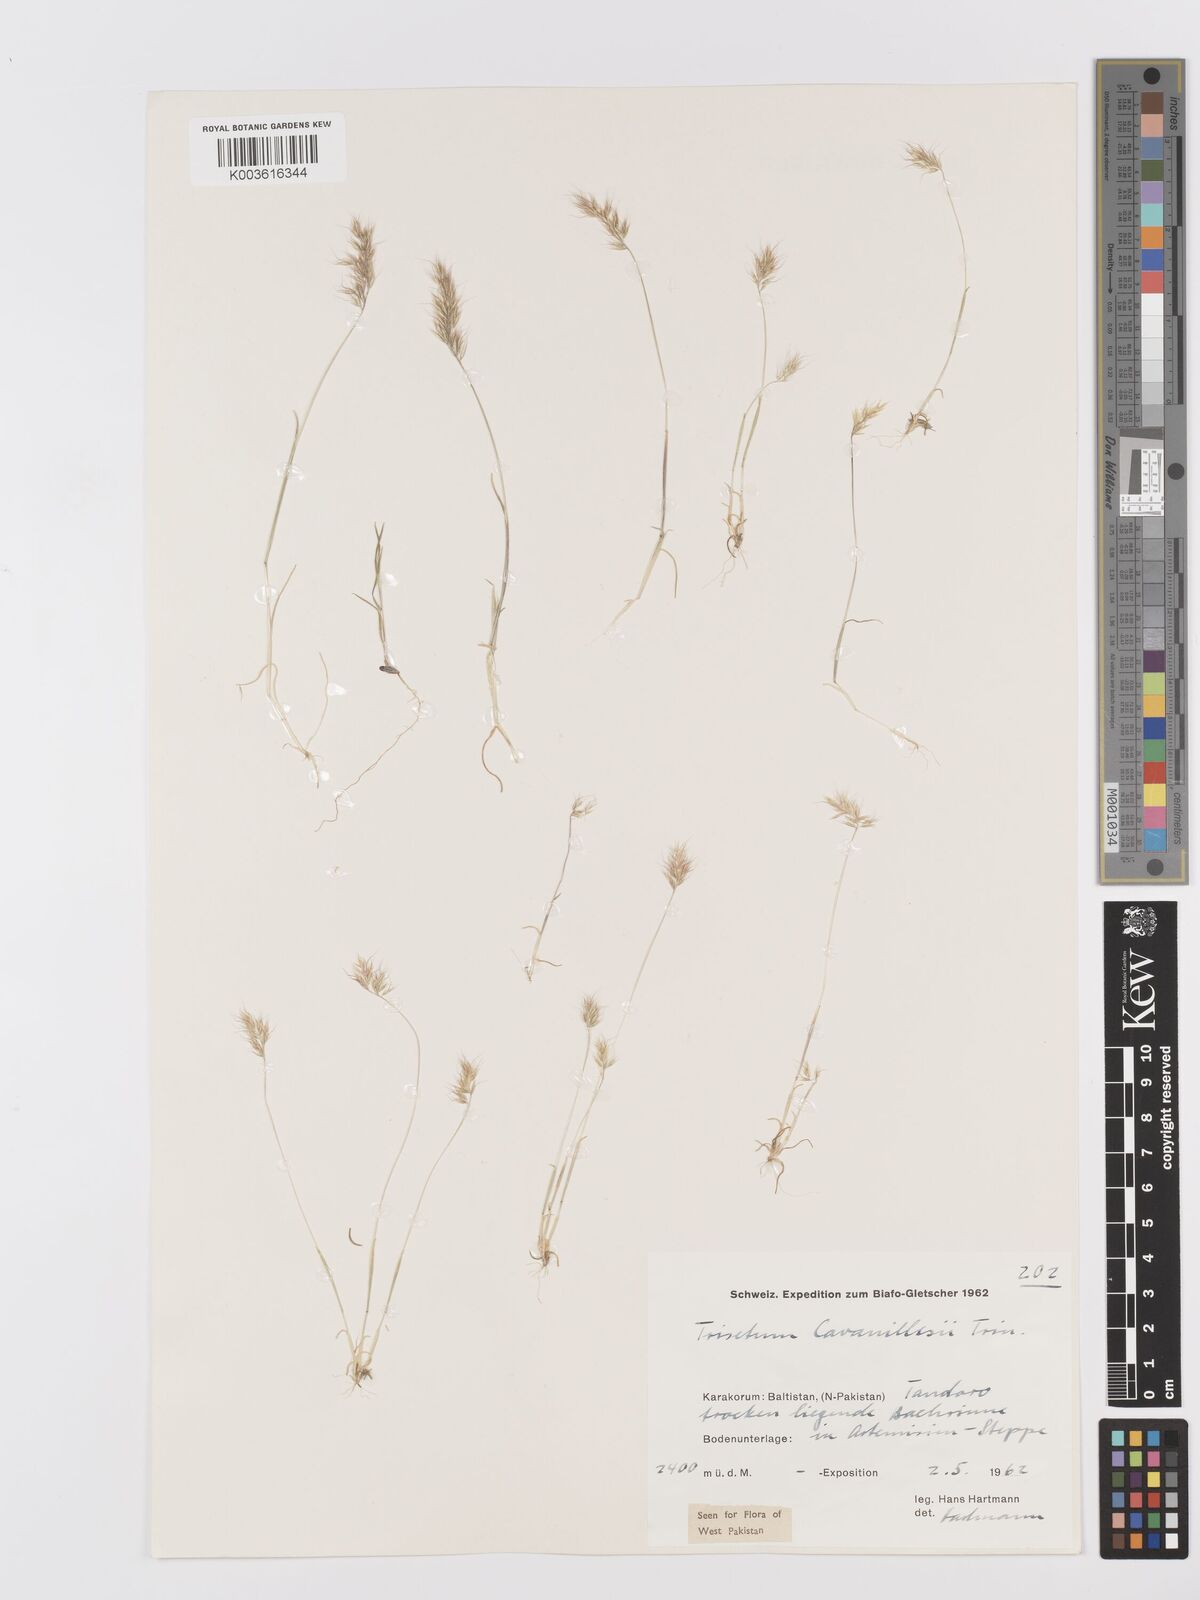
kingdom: Plantae
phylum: Tracheophyta
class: Liliopsida
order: Poales
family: Poaceae
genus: Trisetaria
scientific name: Trisetaria loeflingiana
